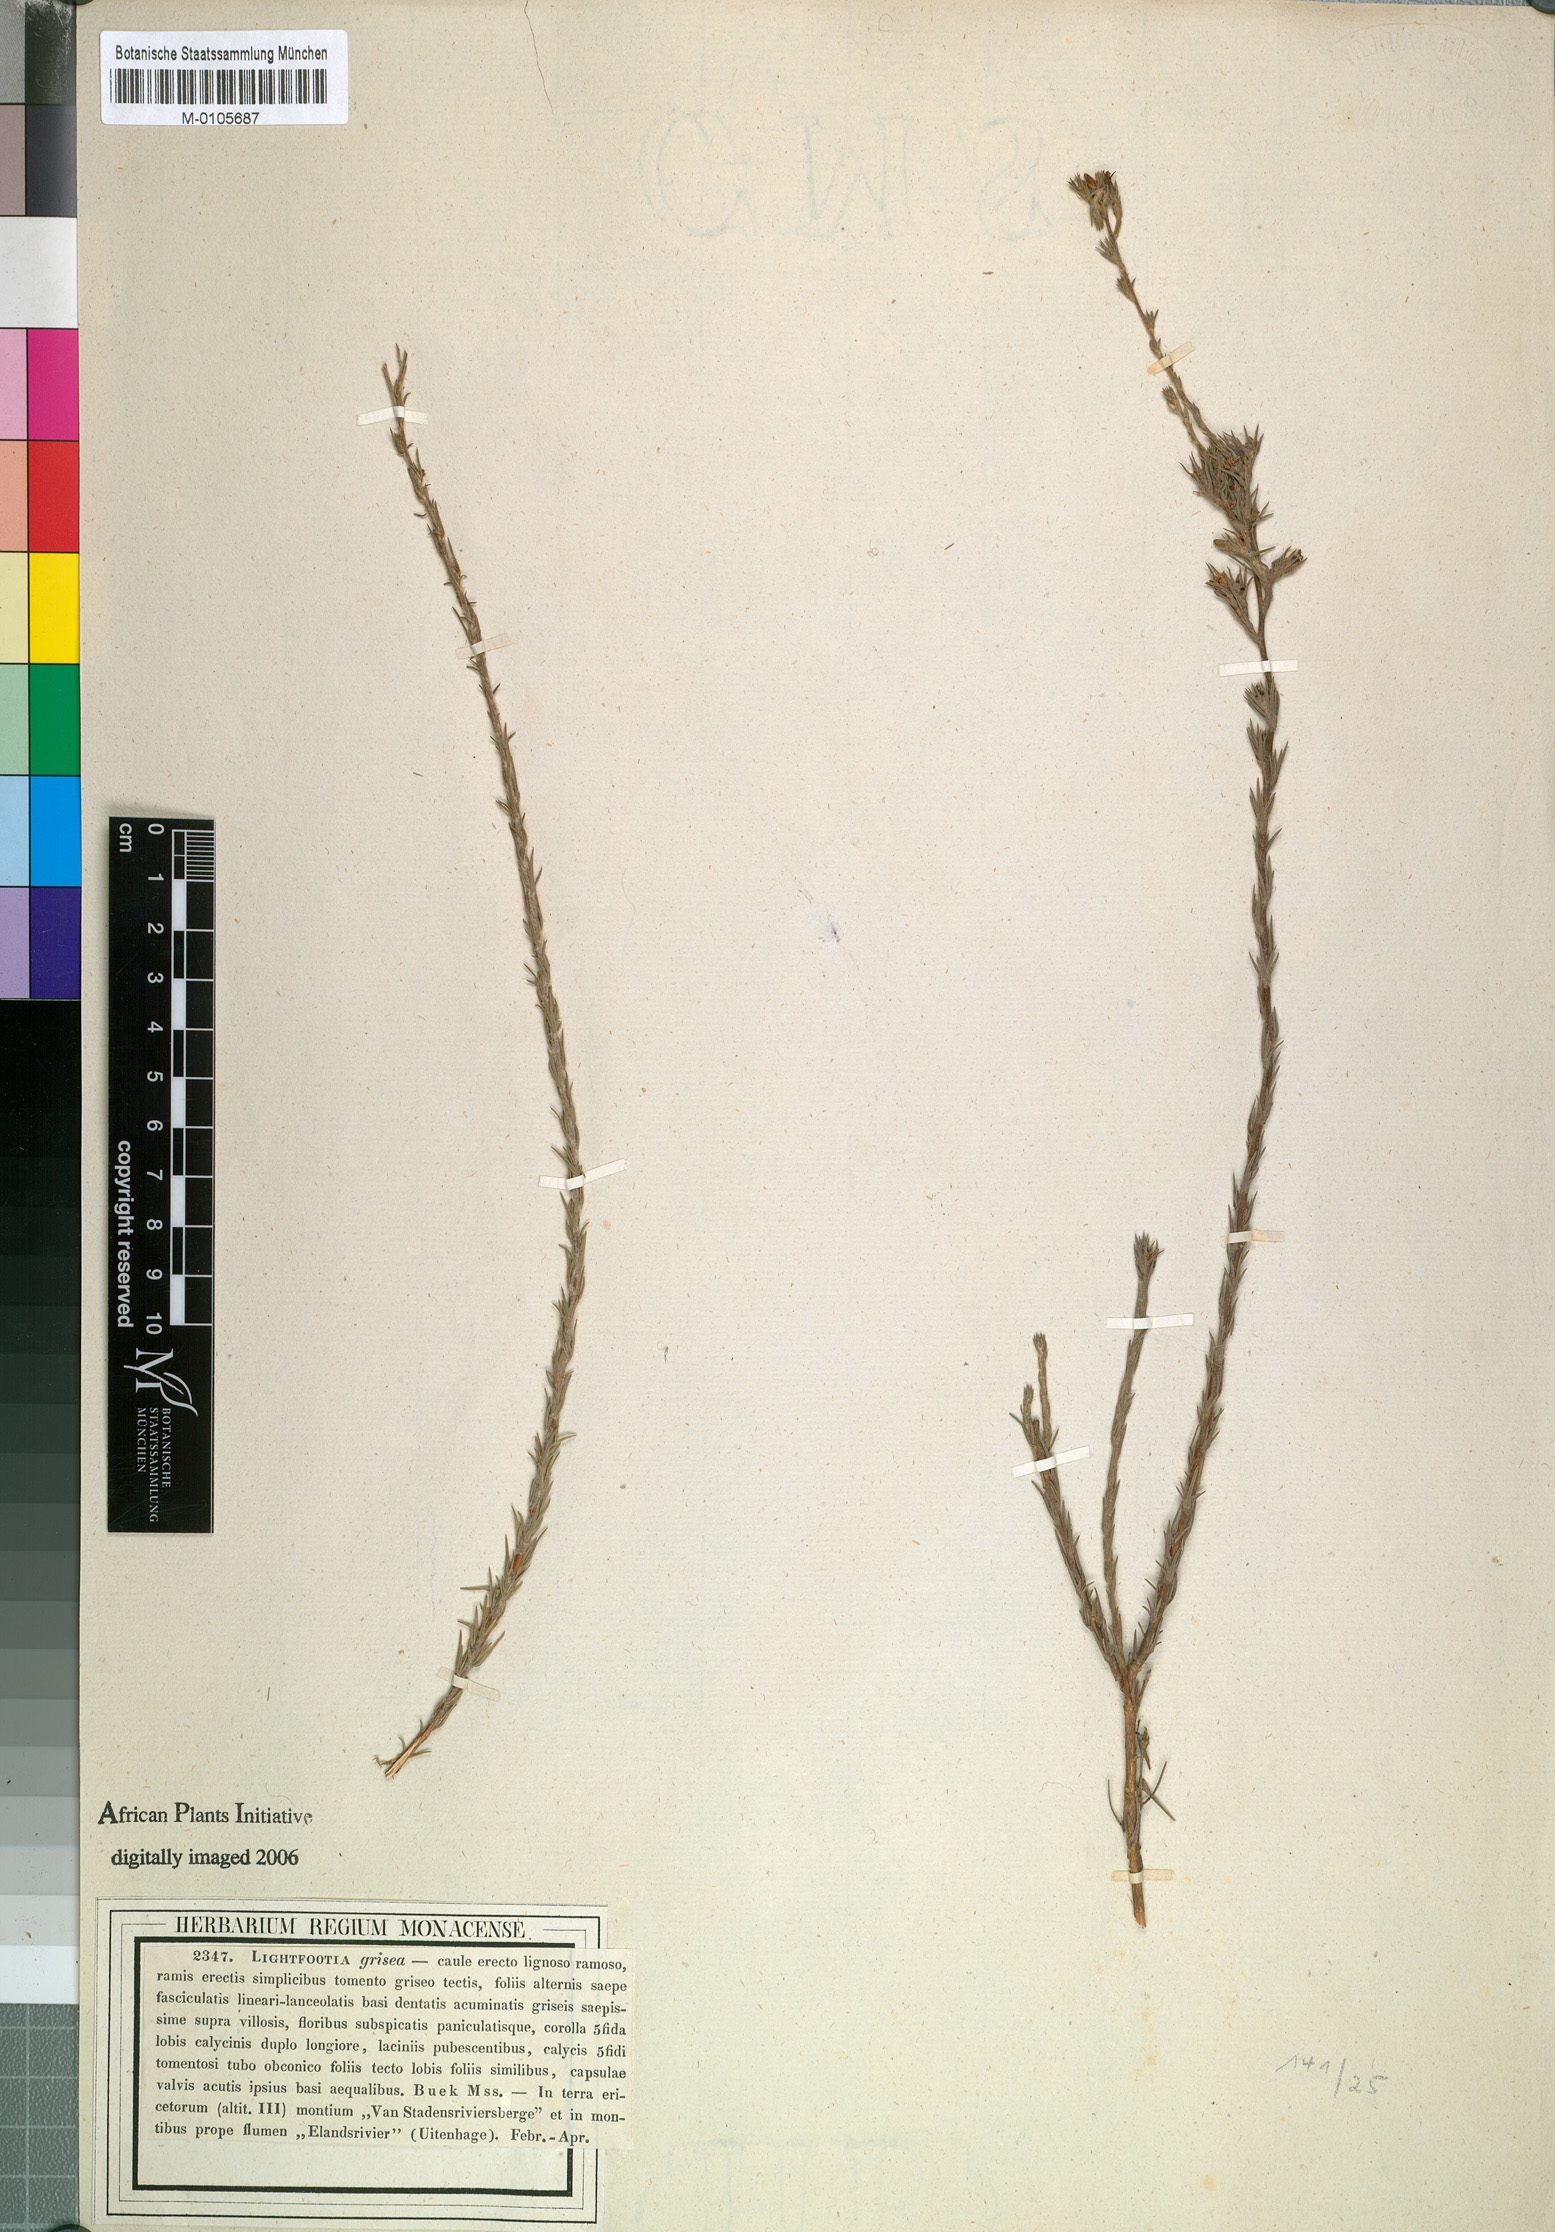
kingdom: Plantae
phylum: Tracheophyta
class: Magnoliopsida
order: Asterales
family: Campanulaceae
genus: Wahlenbergia
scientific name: Wahlenbergia cinerea
